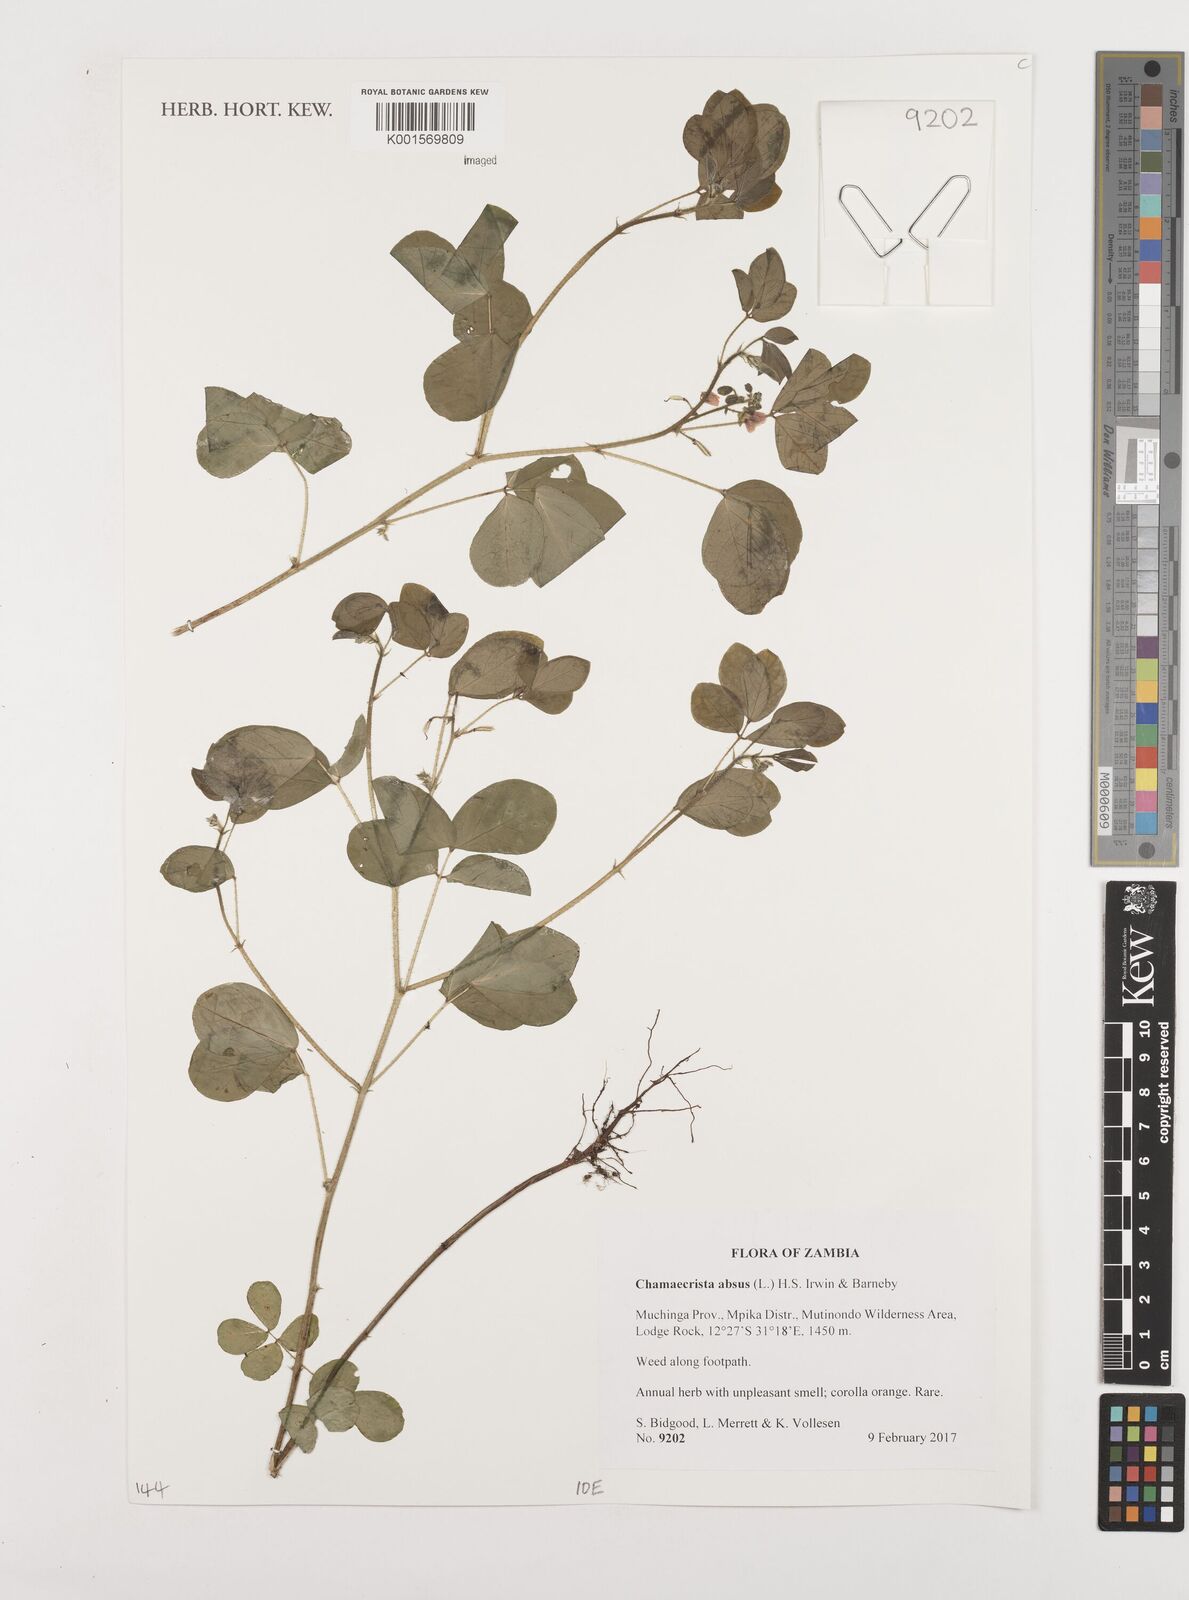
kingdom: Plantae
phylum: Tracheophyta
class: Magnoliopsida
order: Fabales
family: Fabaceae
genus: Chamaecrista
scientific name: Chamaecrista absus
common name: Tropical sensitive pea
